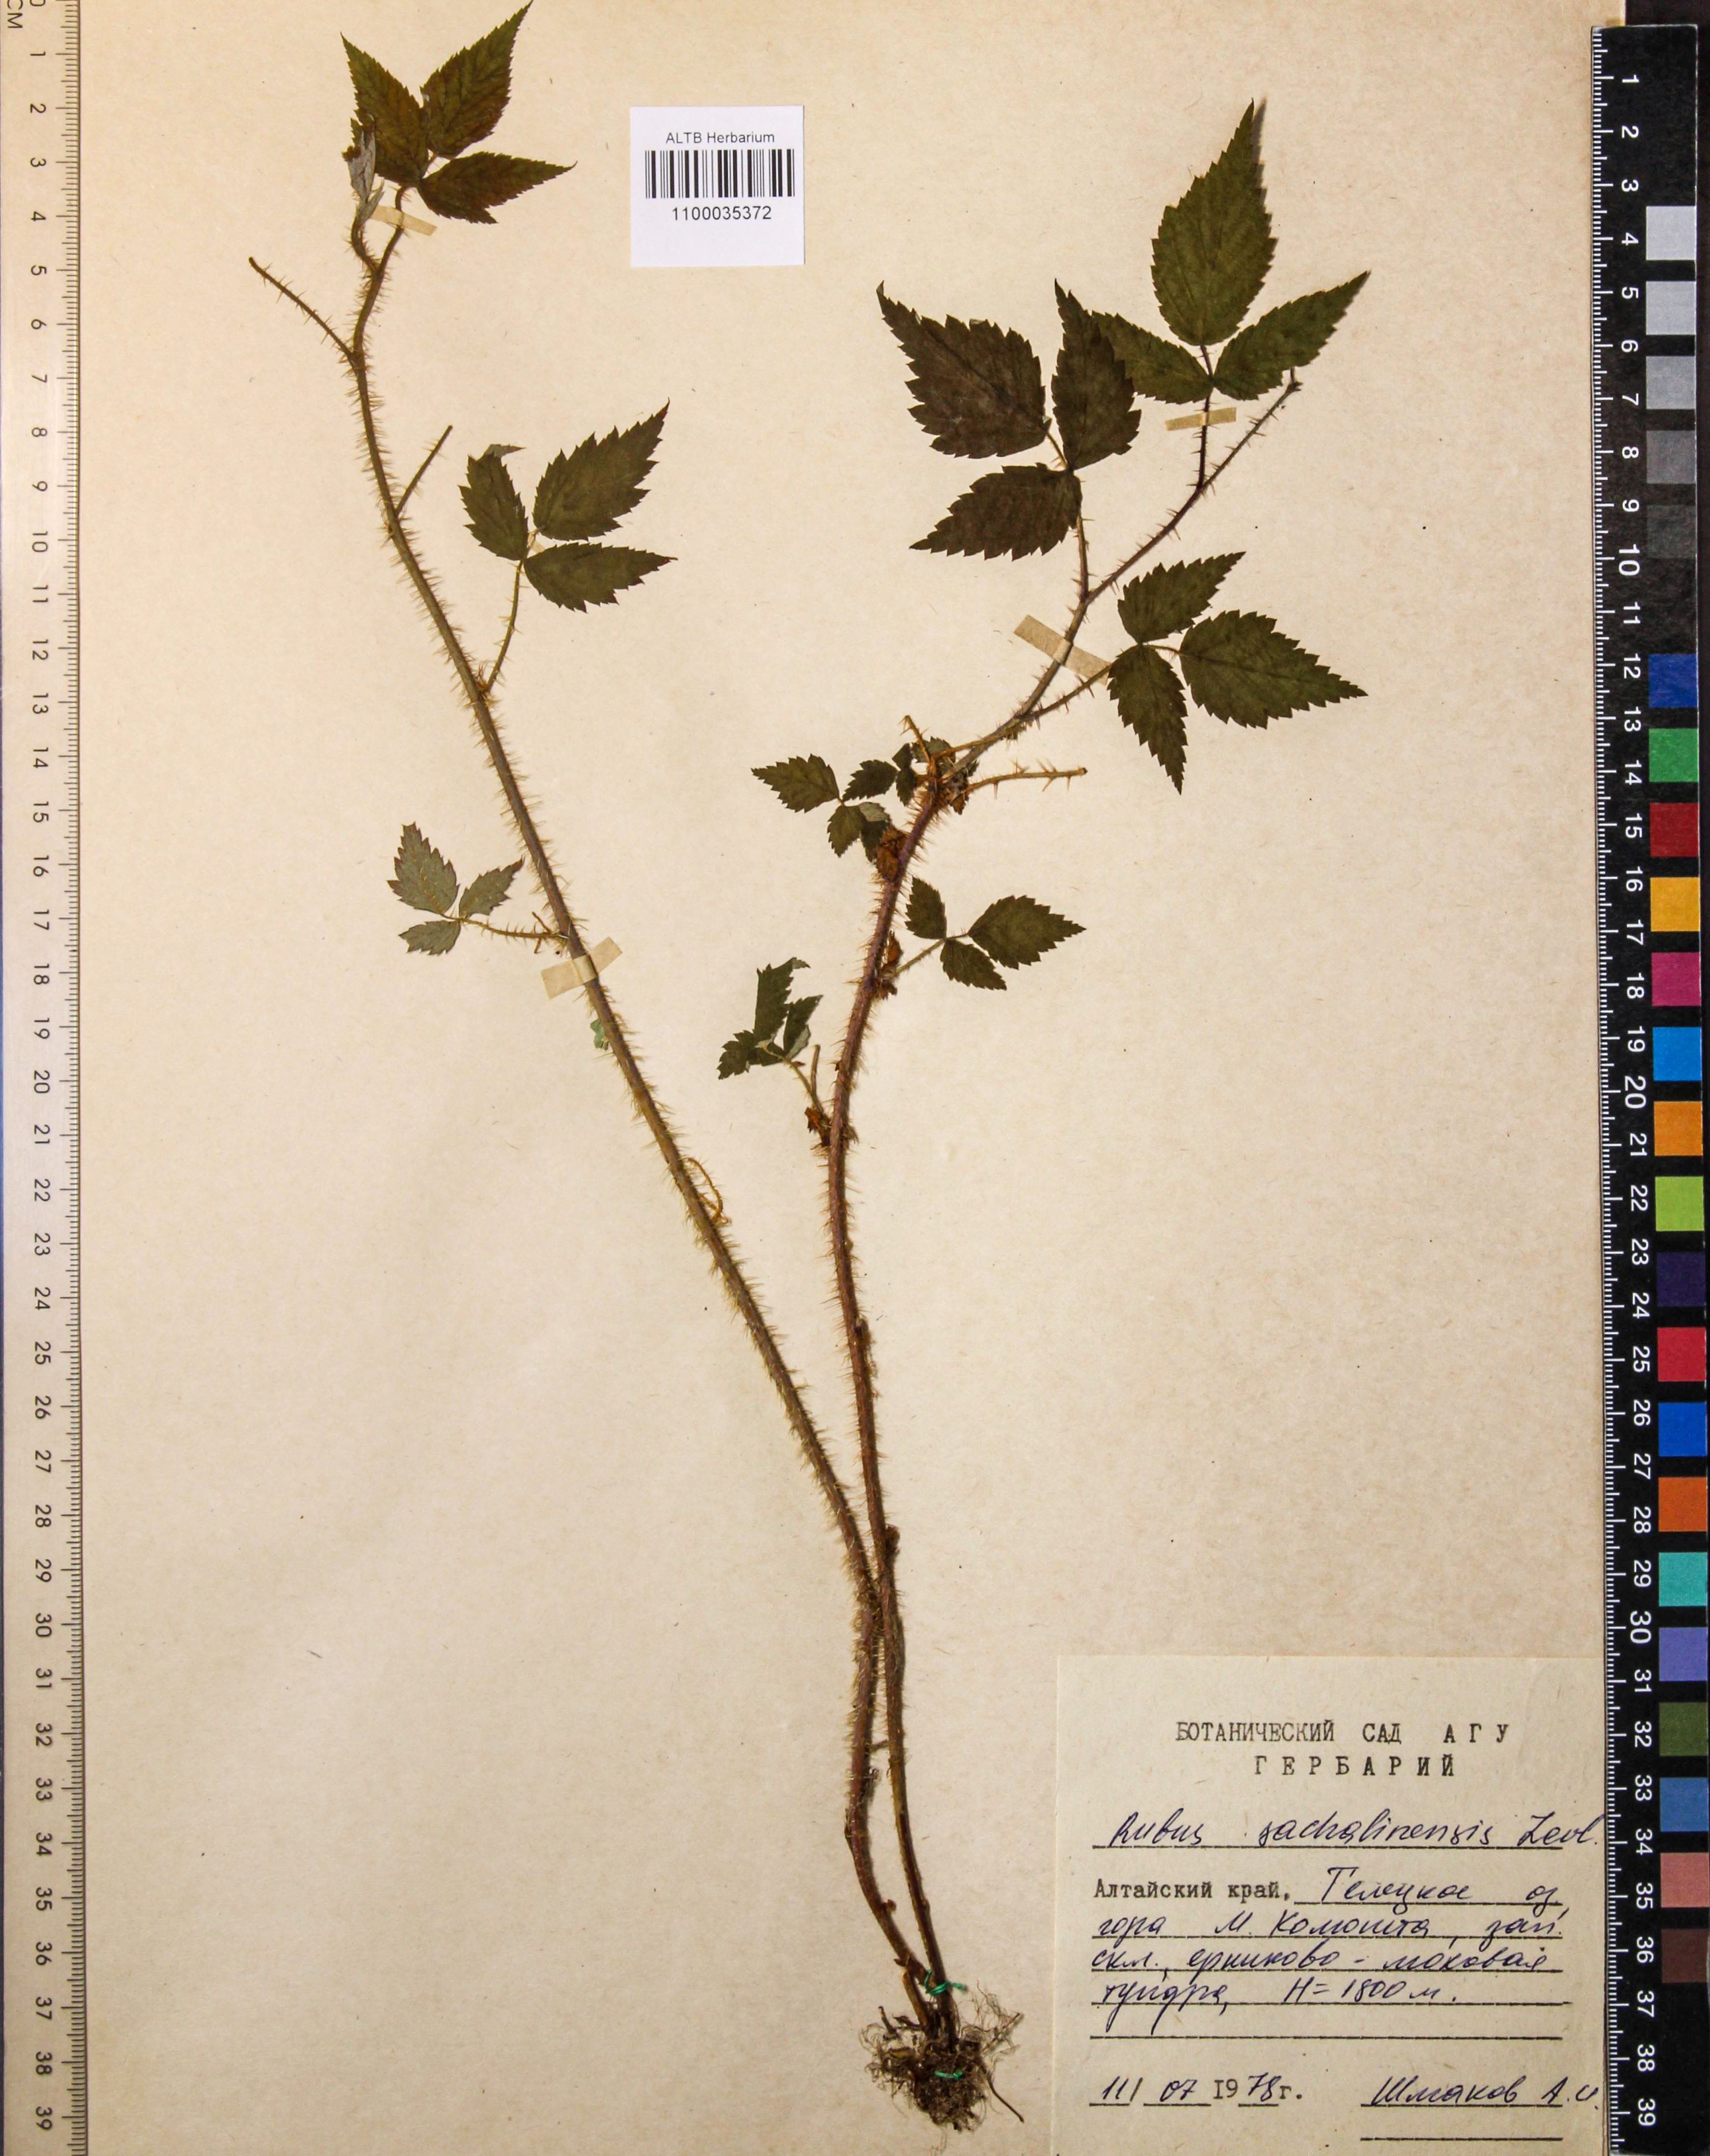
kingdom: Plantae
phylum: Tracheophyta
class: Magnoliopsida
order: Rosales
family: Rosaceae
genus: Rubus
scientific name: Rubus sachalinensis
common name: Red raspberry
